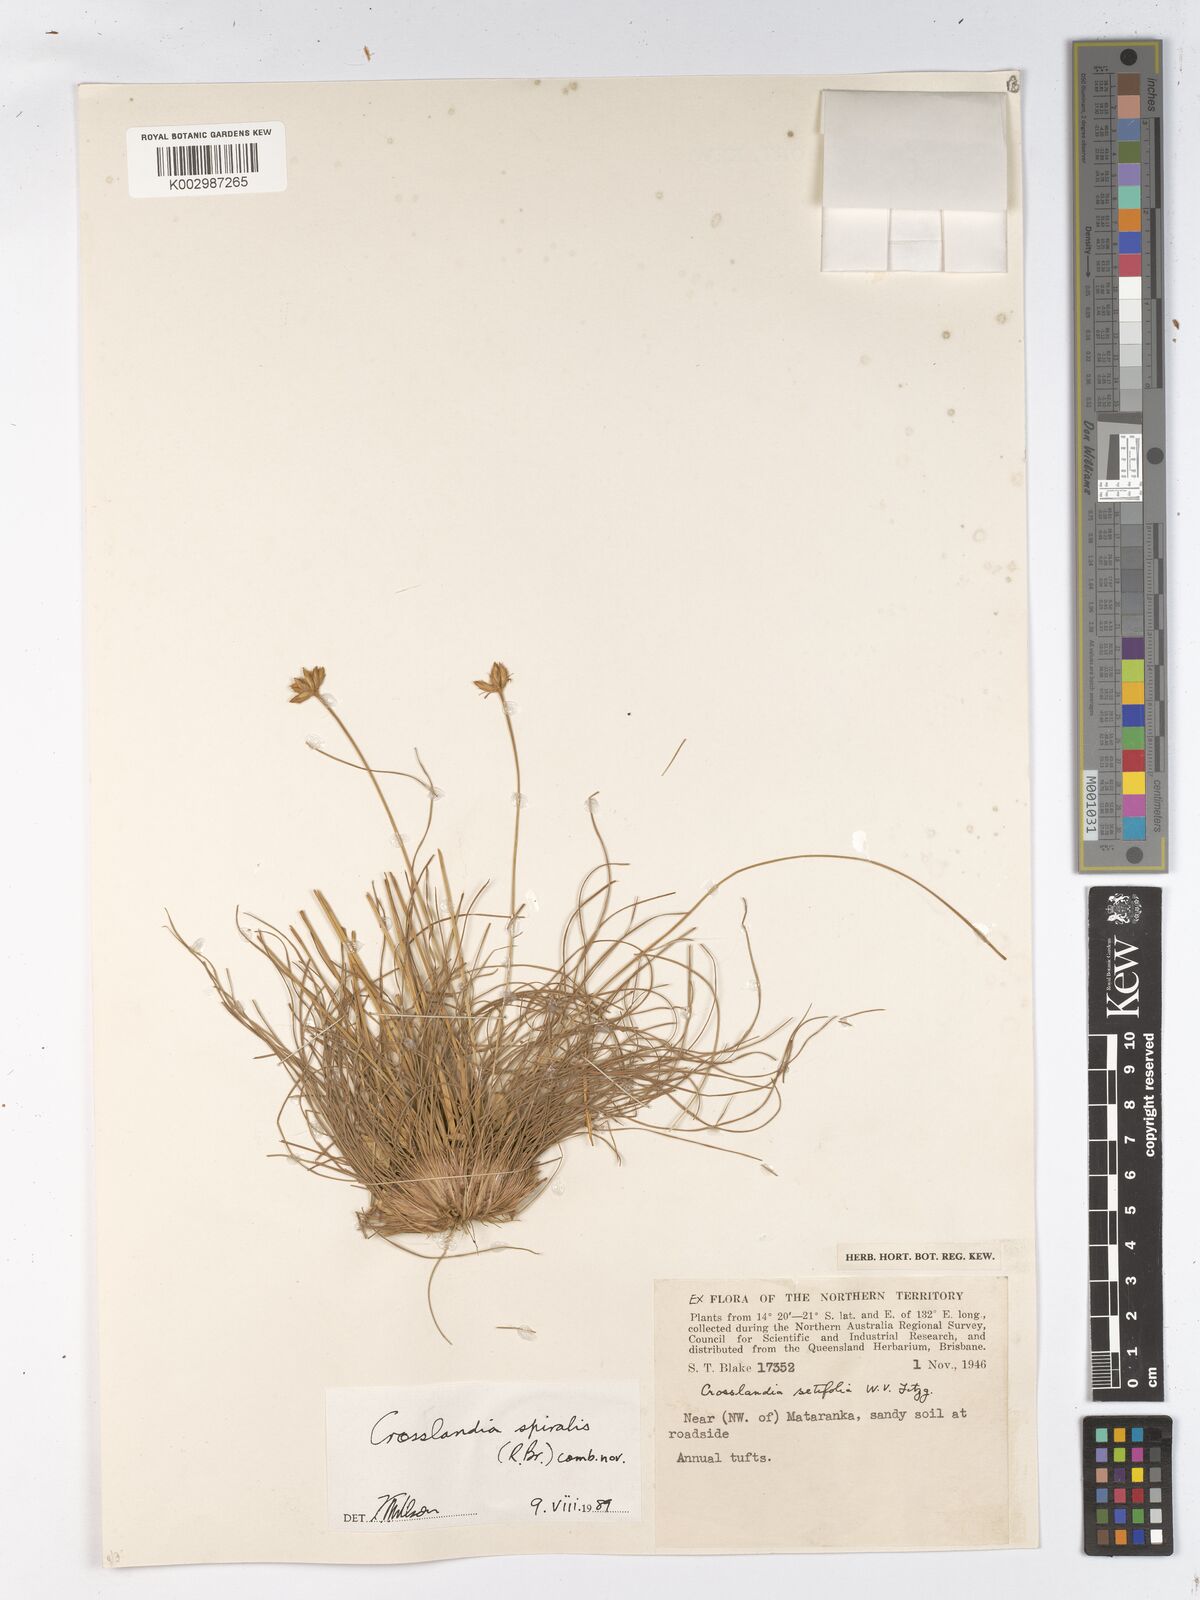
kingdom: Animalia
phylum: Mollusca
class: Gastropoda
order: Nudibranchia
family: Scyllaeidae
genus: Crosslandia
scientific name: Crosslandia
